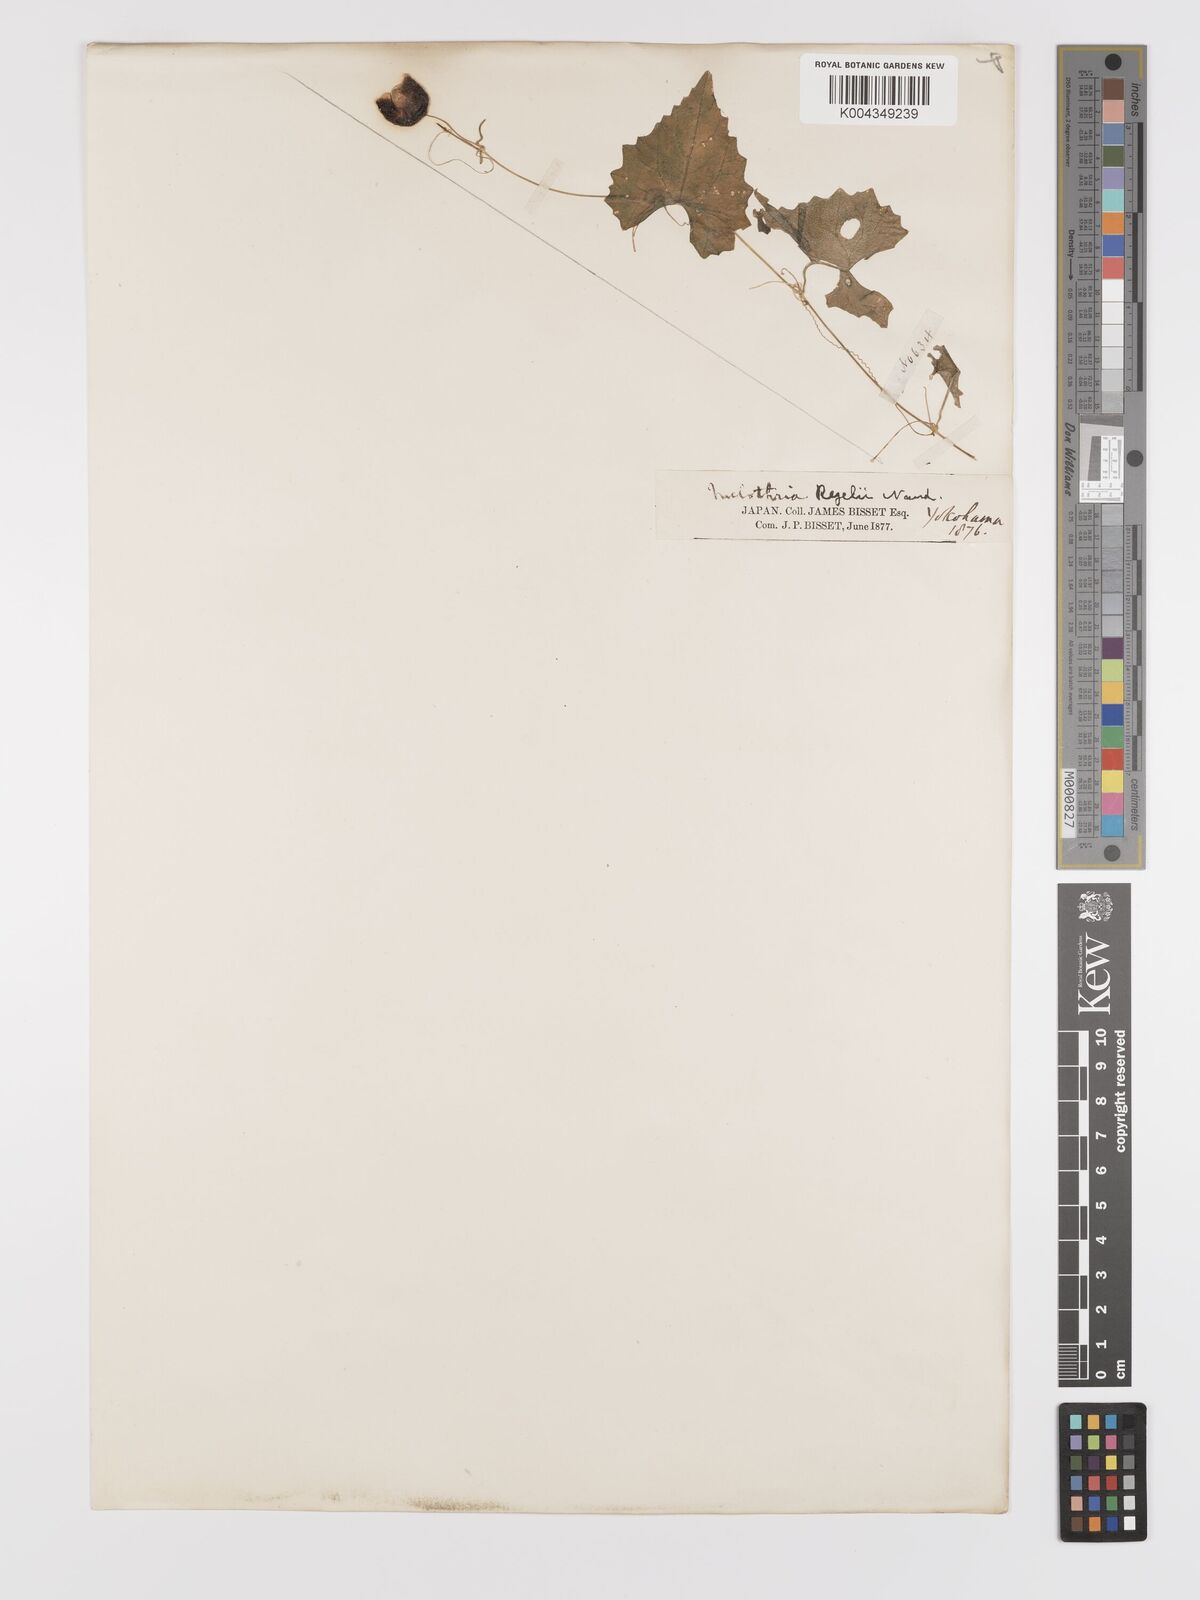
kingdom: Plantae
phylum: Tracheophyta
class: Magnoliopsida
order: Cucurbitales
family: Cucurbitaceae
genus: Zehneria
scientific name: Zehneria japonica
